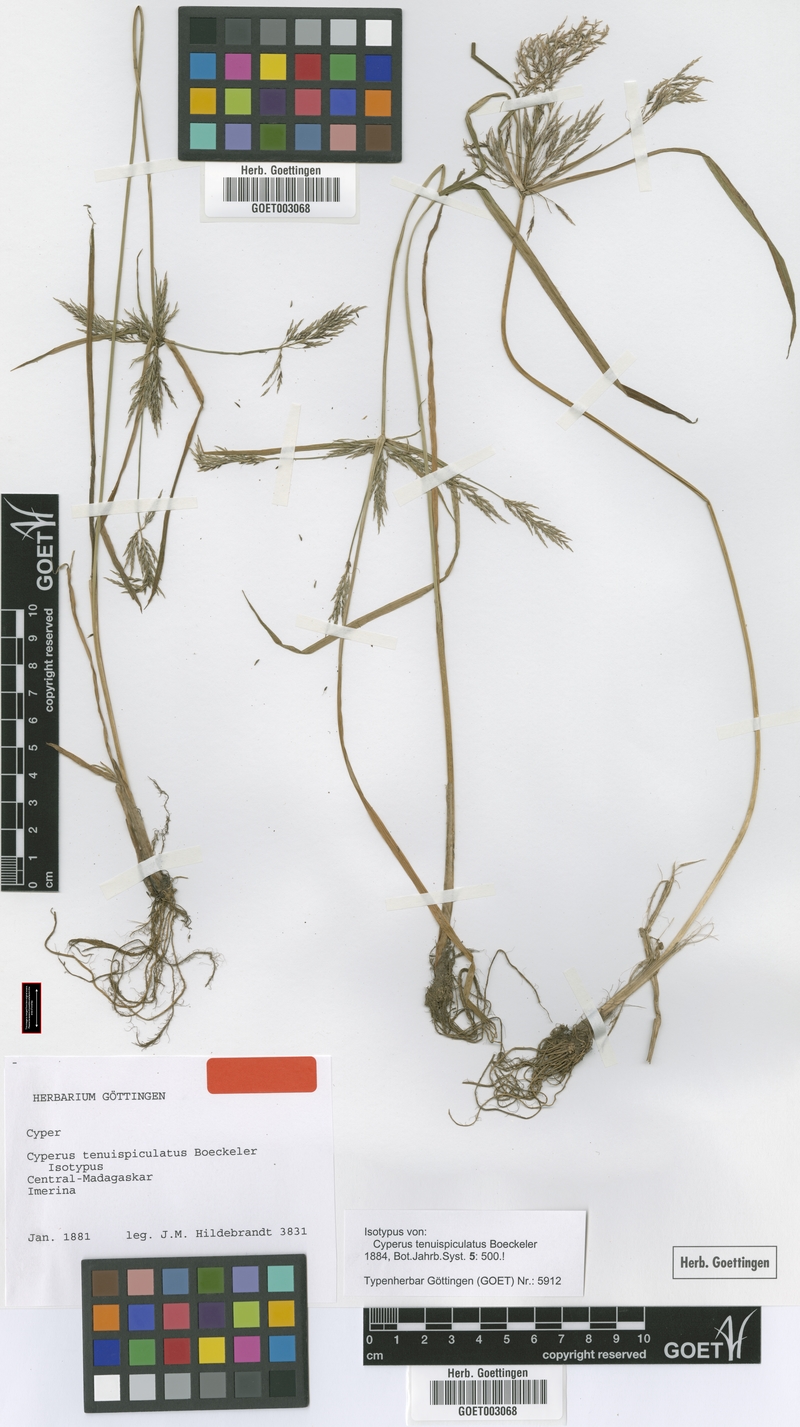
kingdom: Plantae
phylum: Tracheophyta
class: Liliopsida
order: Poales
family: Cyperaceae
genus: Cyperus
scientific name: Cyperus tenuispiculatus
